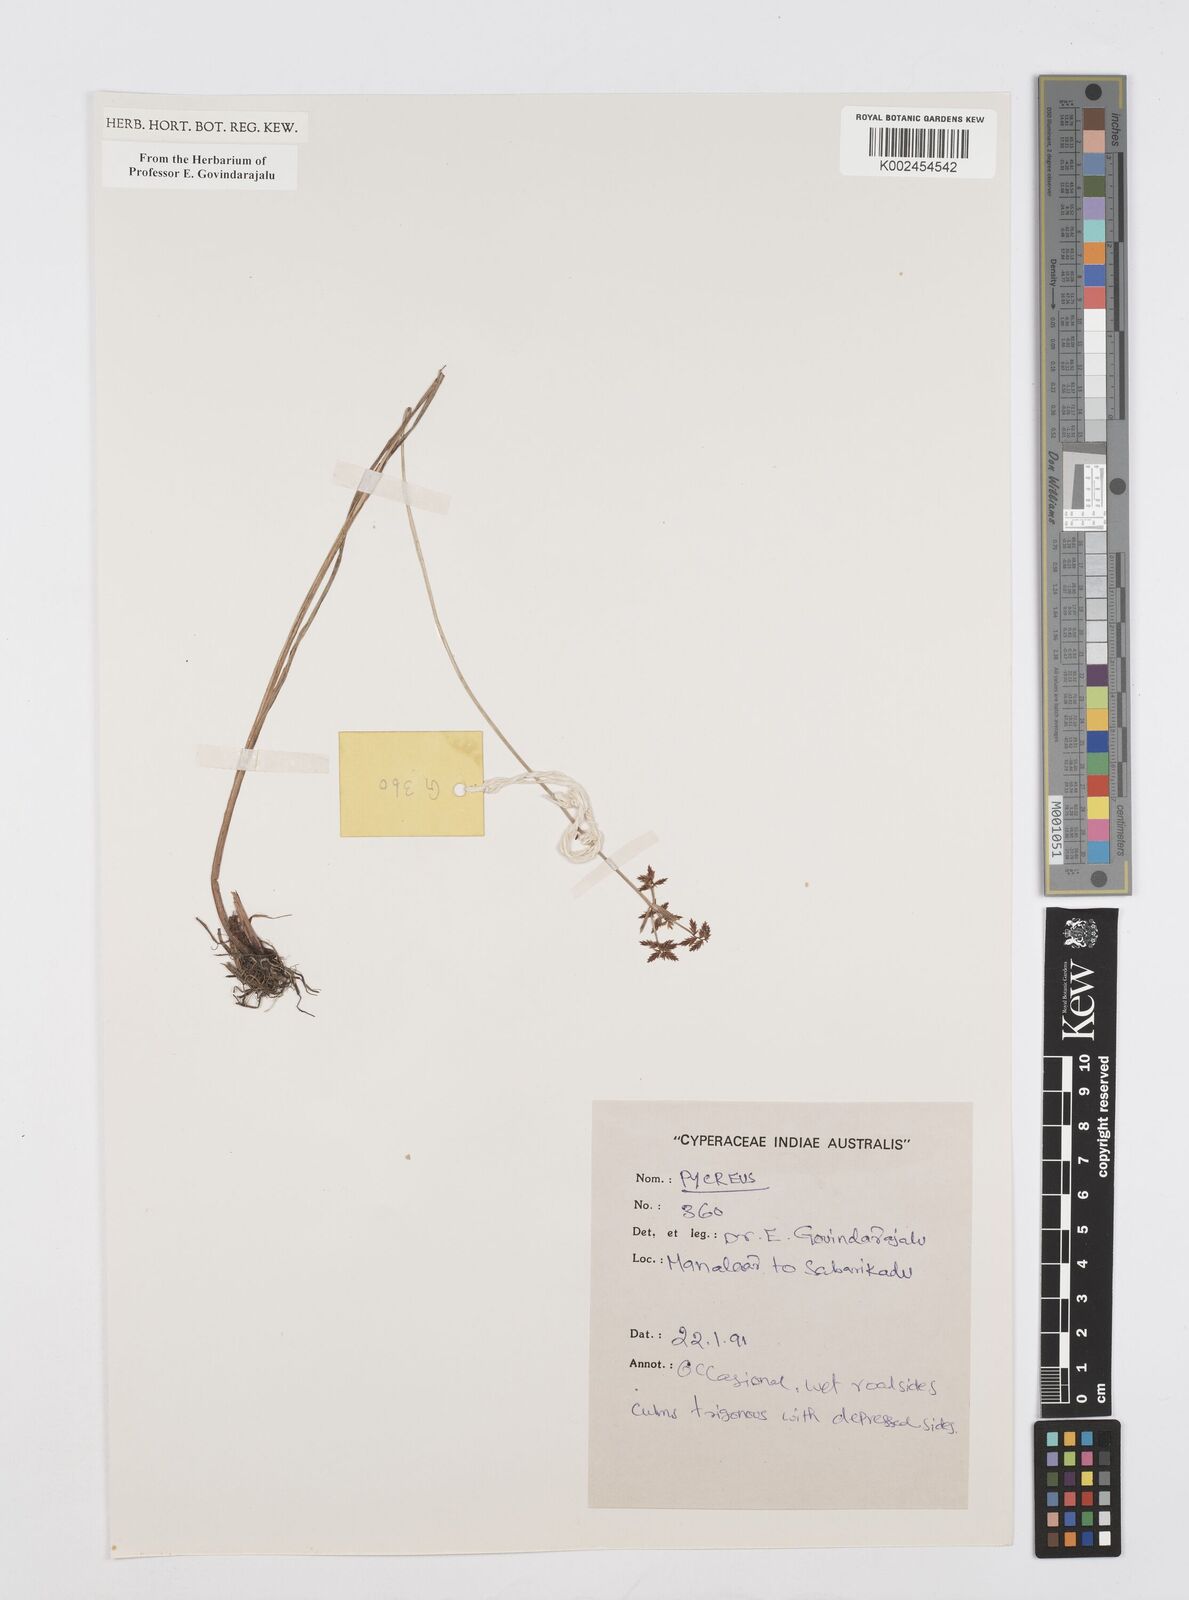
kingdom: Plantae
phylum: Tracheophyta
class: Liliopsida
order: Poales
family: Cyperaceae
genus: Cyperus
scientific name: Cyperus
